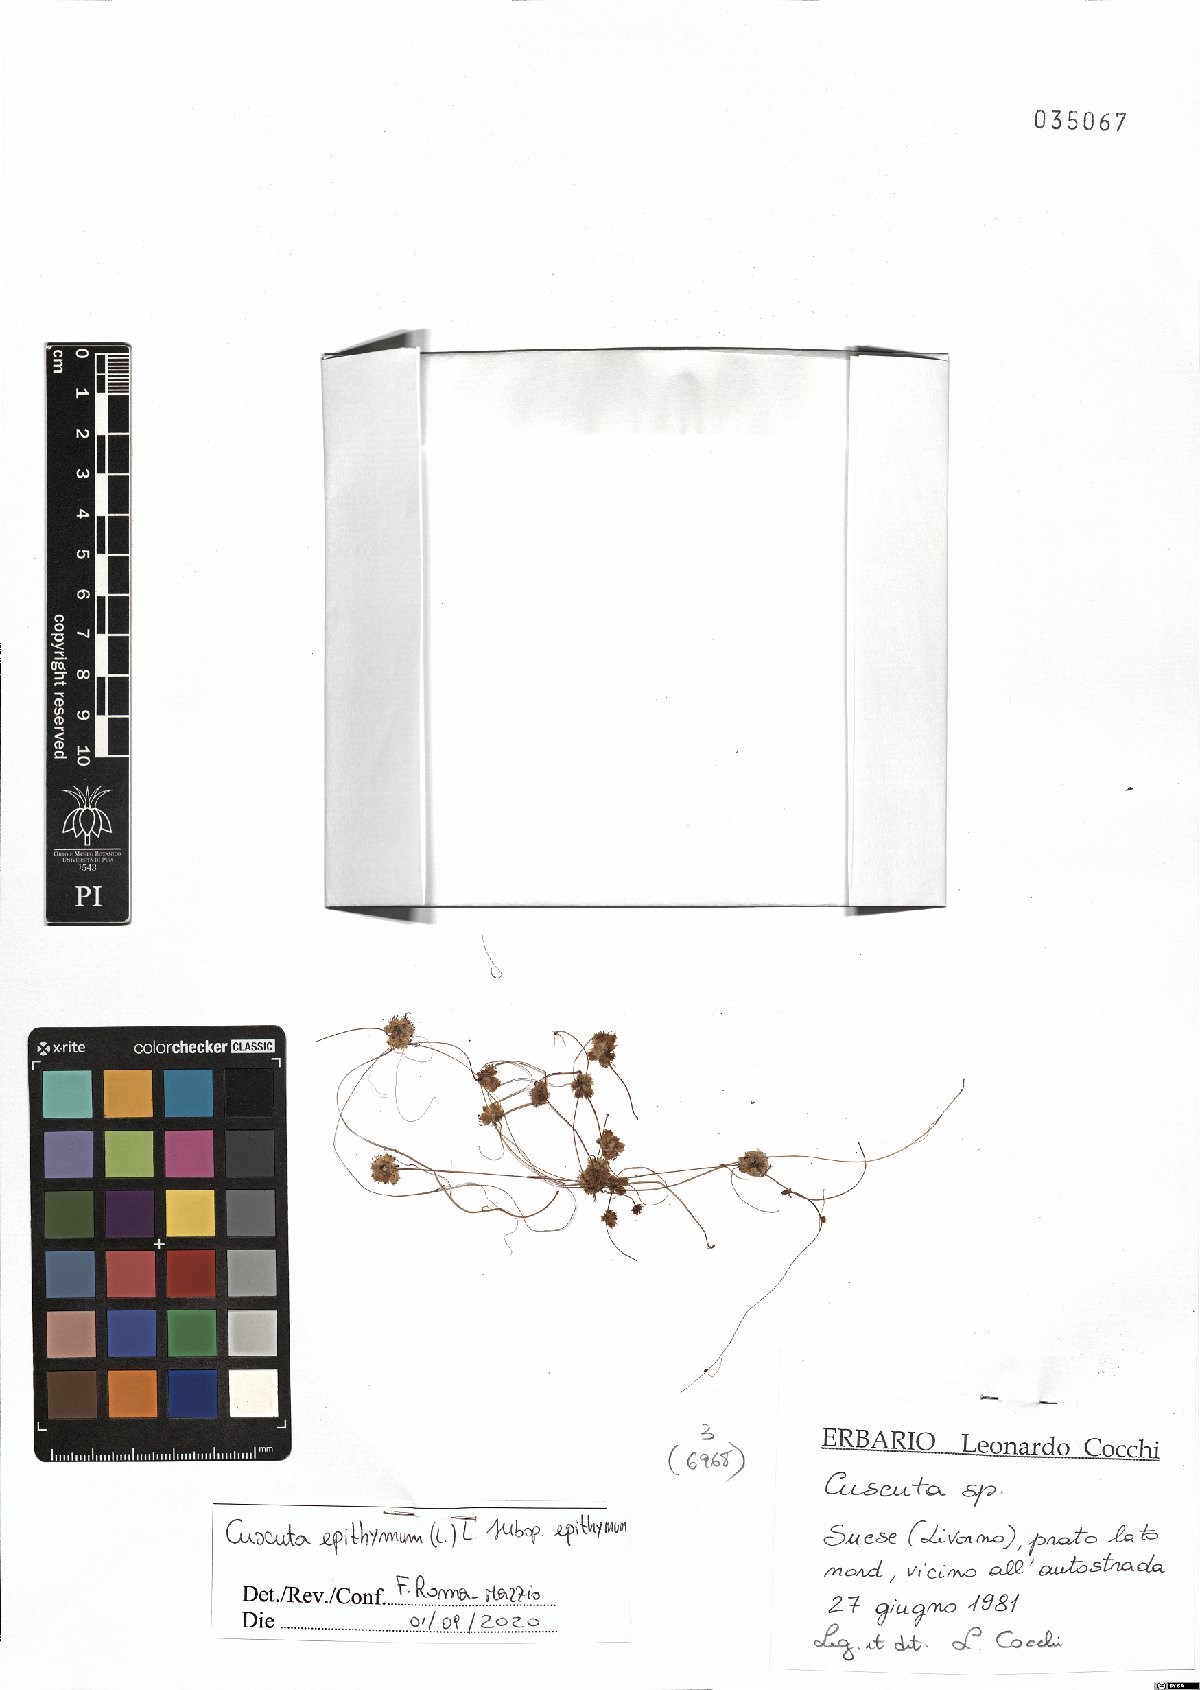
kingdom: Plantae
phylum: Tracheophyta
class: Magnoliopsida
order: Solanales
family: Convolvulaceae
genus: Cuscuta
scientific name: Cuscuta epithymum
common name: Clover dodder
